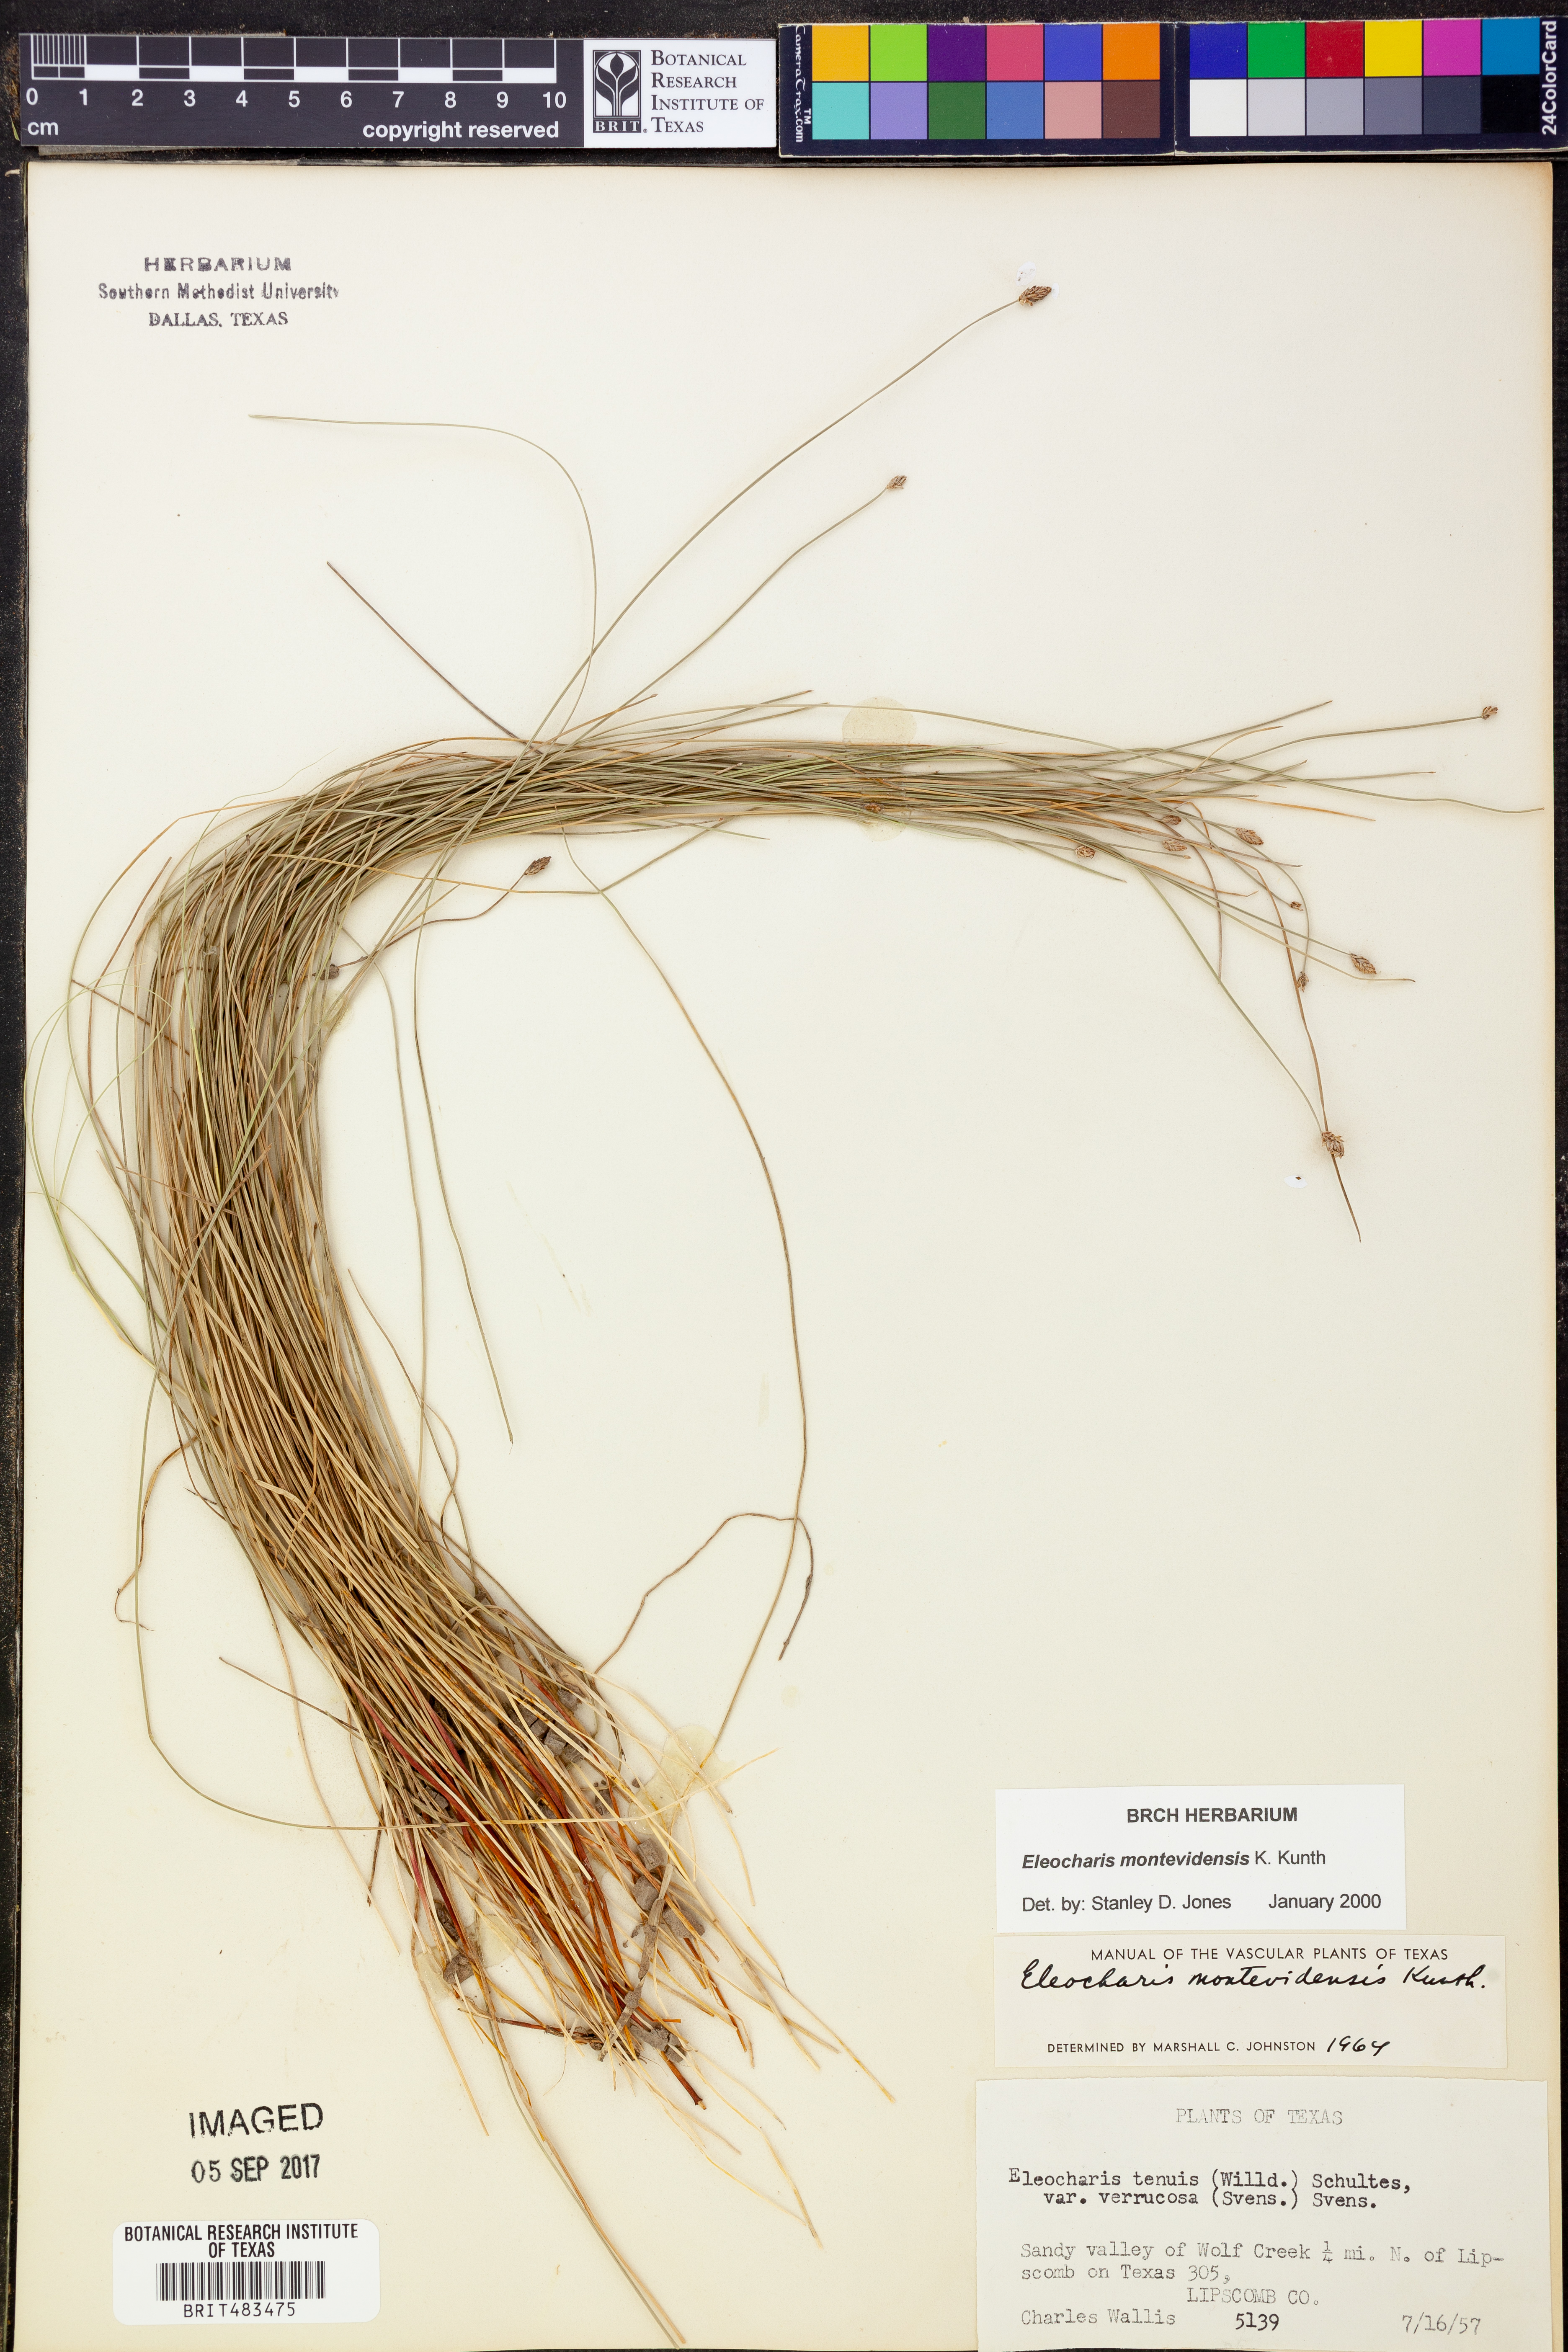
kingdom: Plantae
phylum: Tracheophyta
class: Liliopsida
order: Poales
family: Cyperaceae
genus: Eleocharis
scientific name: Eleocharis montevidensis
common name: Sand spike-rush
